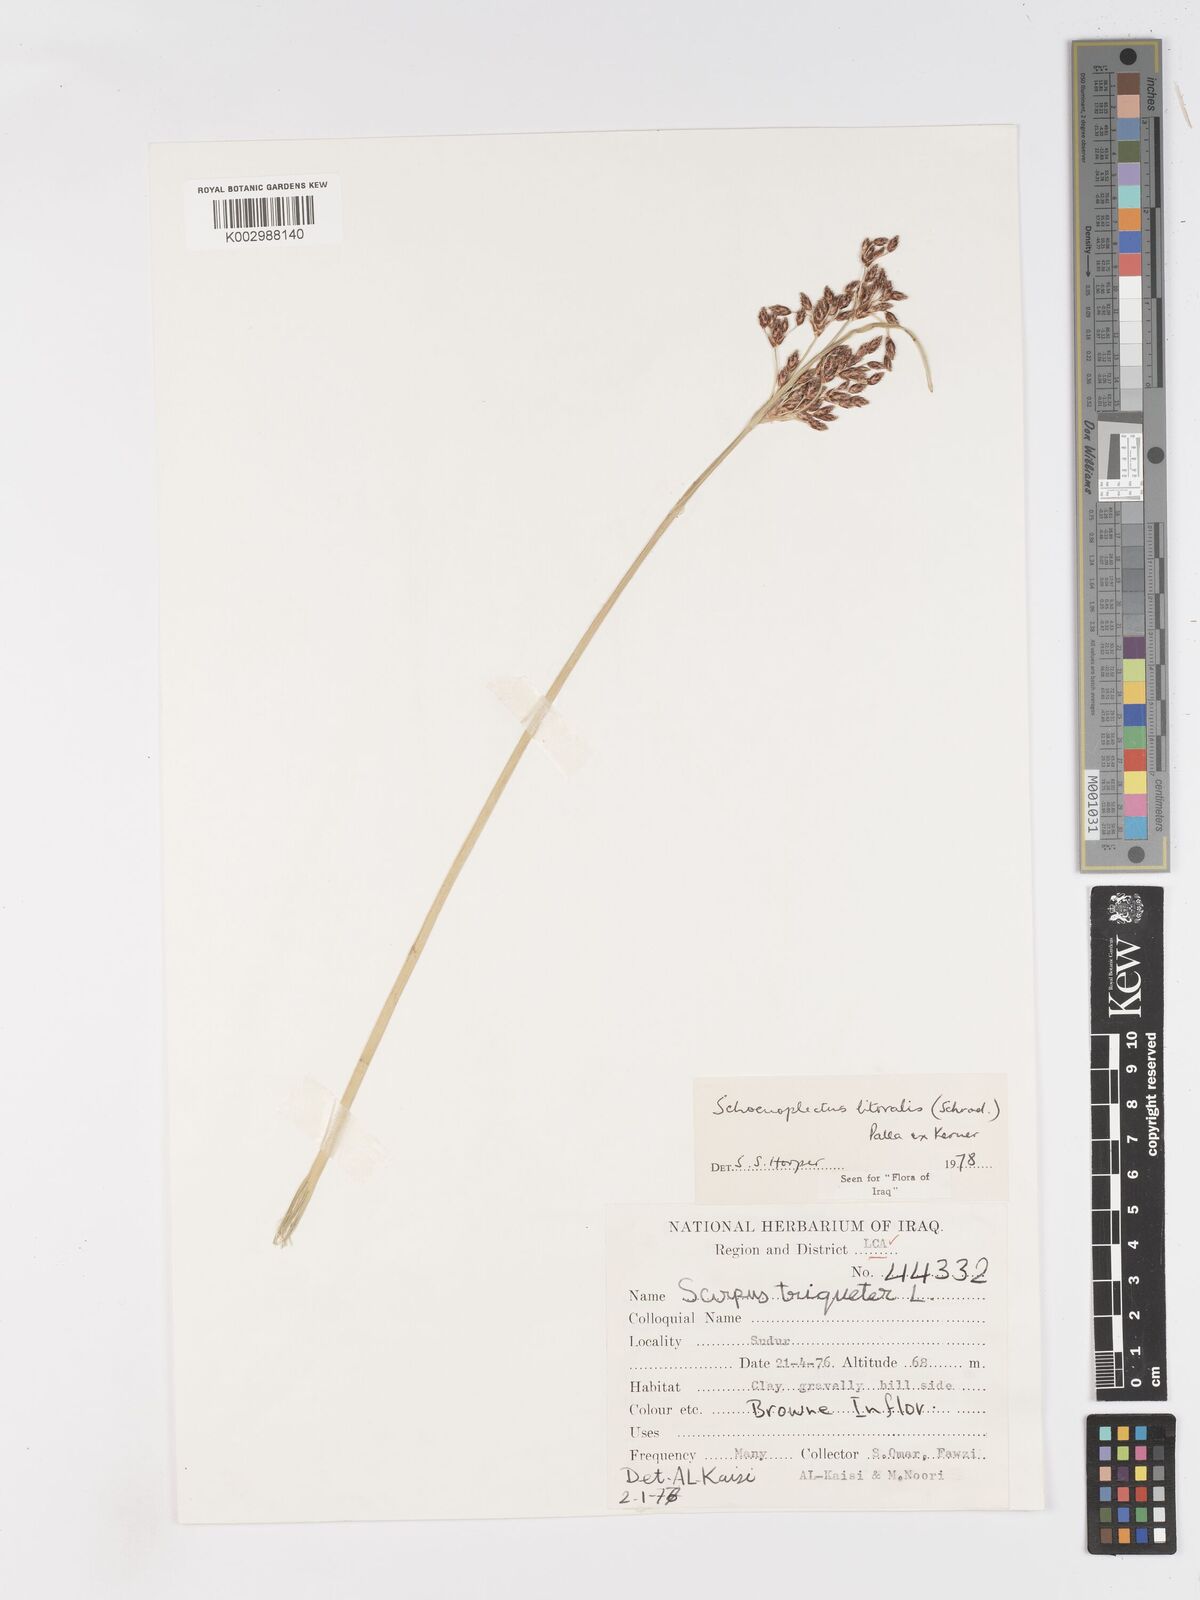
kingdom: Plantae
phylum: Tracheophyta
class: Liliopsida
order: Poales
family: Cyperaceae
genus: Schoenoplectus
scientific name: Schoenoplectus litoralis
